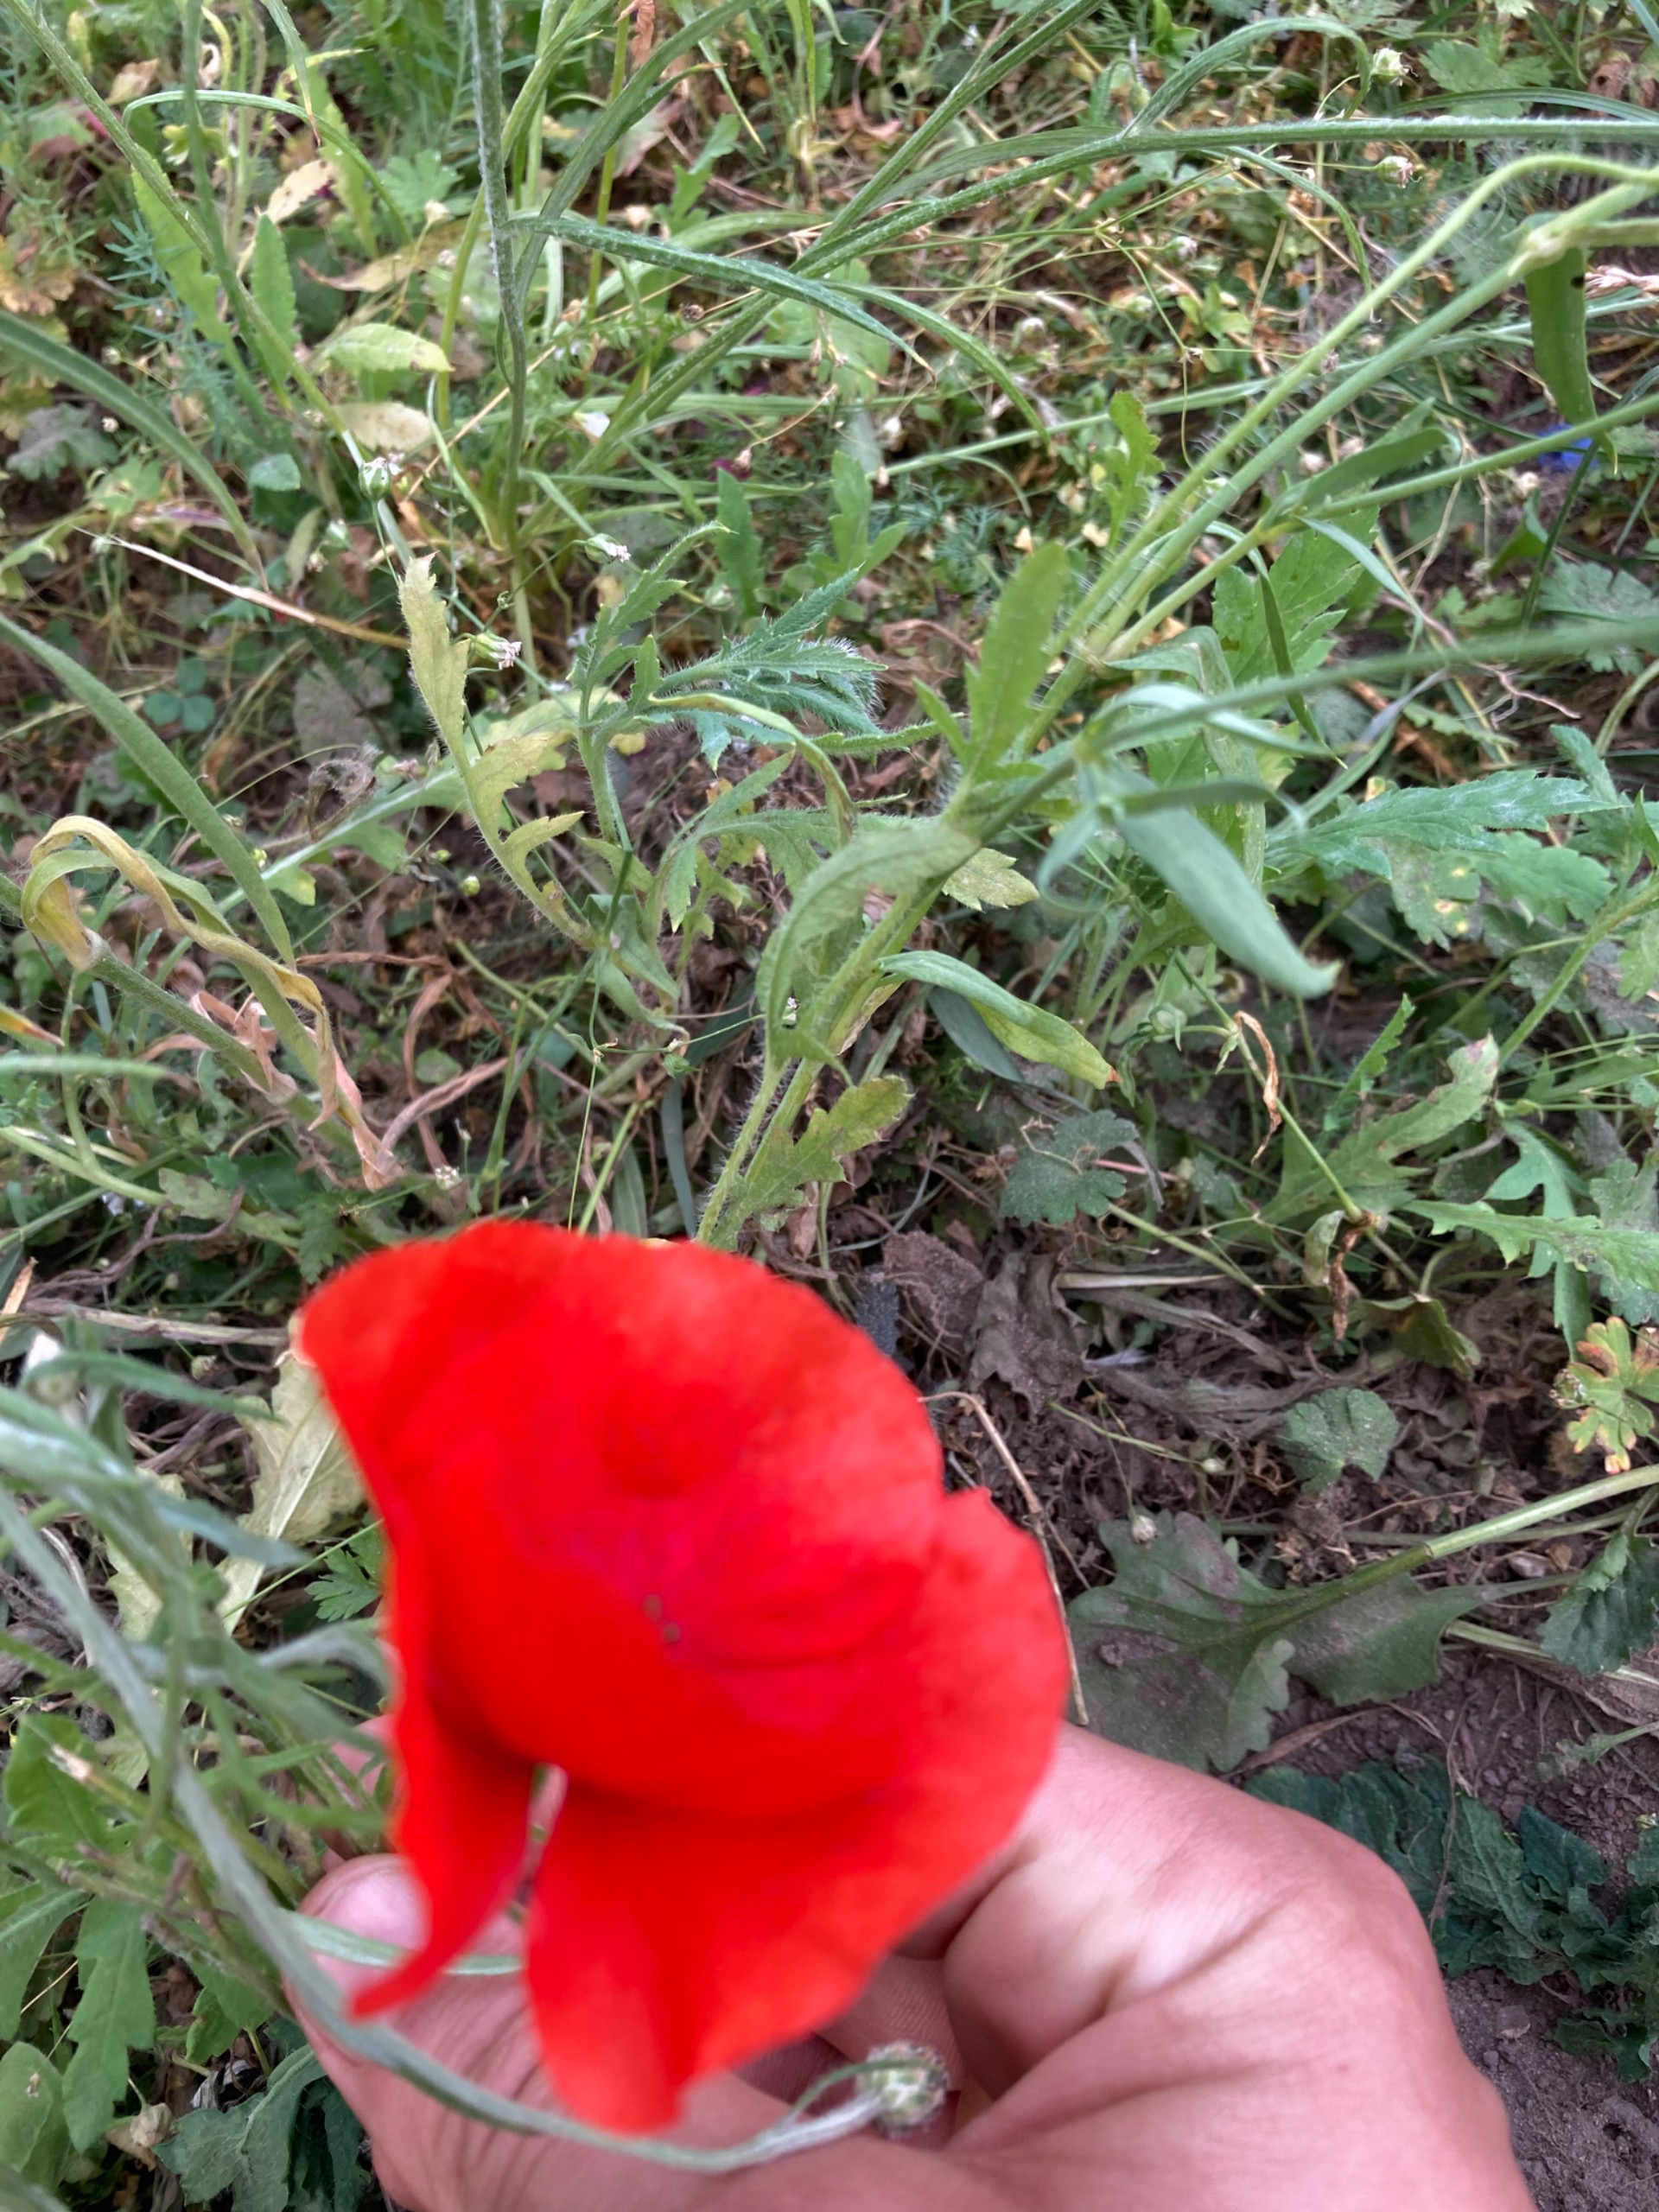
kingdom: Plantae
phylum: Tracheophyta
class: Magnoliopsida
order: Ranunculales
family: Papaveraceae
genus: Papaver
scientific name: Papaver rhoeas
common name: Korn-valmue
